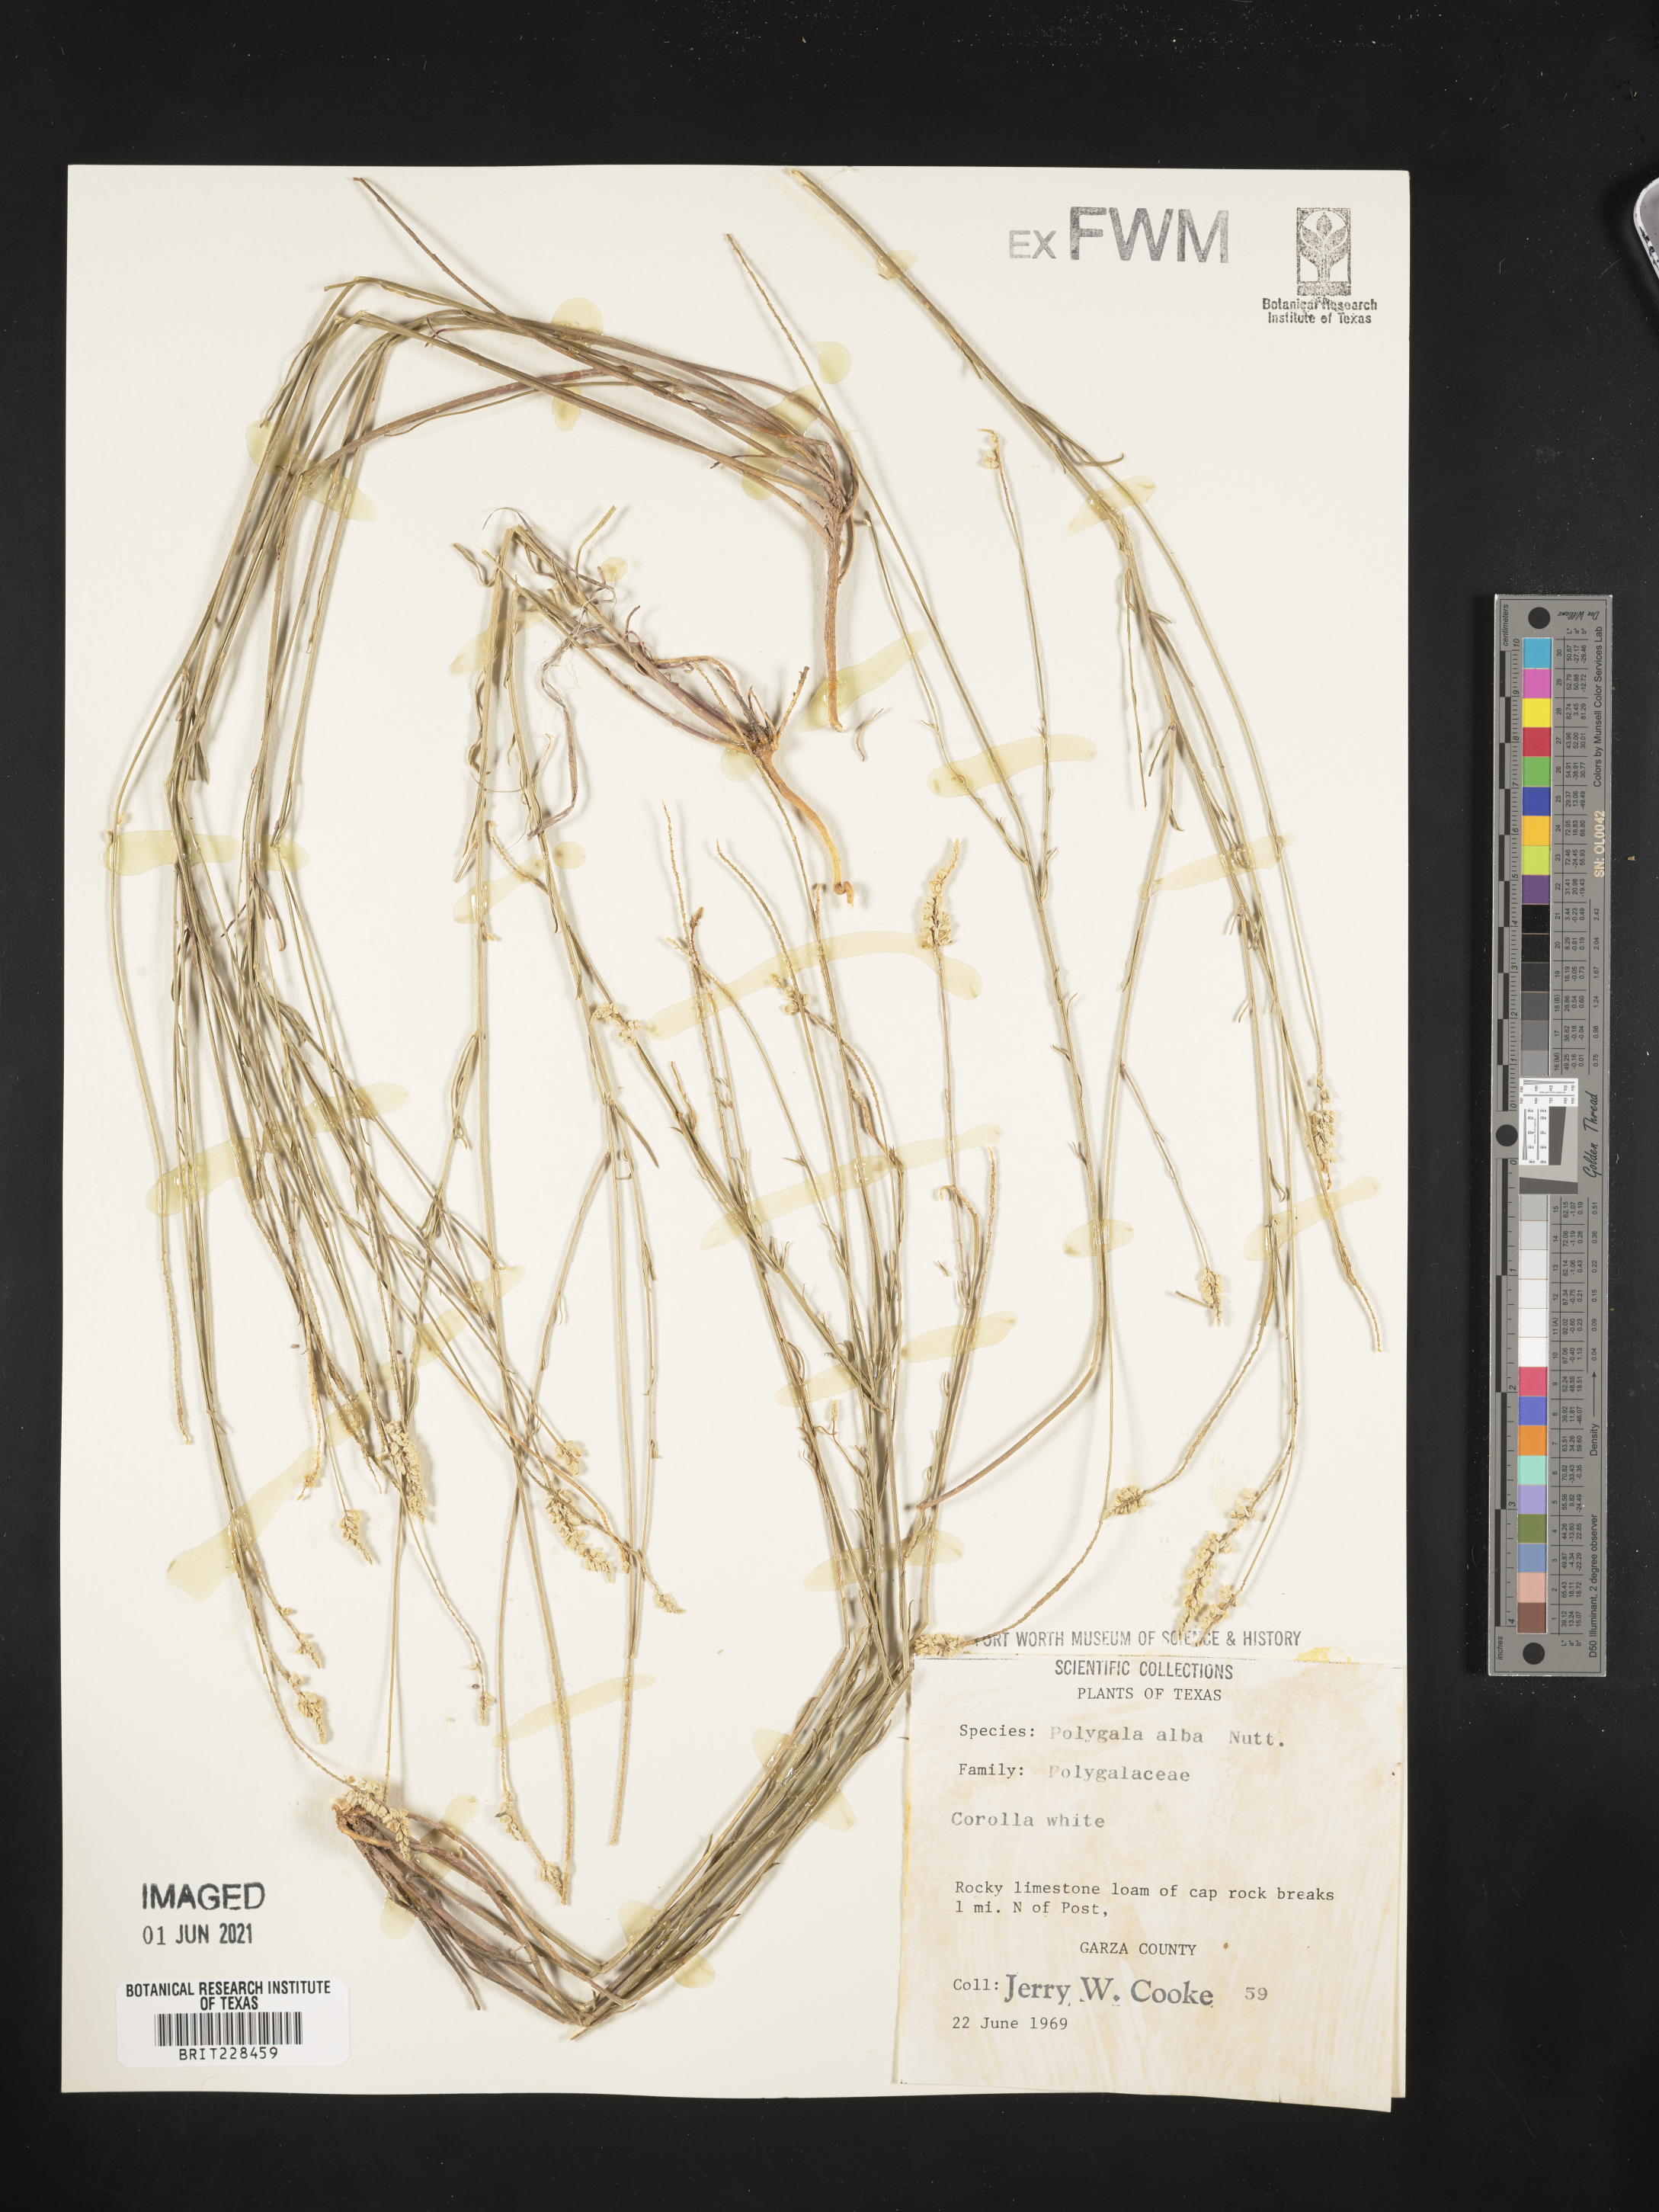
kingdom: Plantae
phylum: Tracheophyta
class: Magnoliopsida
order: Fabales
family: Polygalaceae
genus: Polygala
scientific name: Polygala alba
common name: White milkwort
